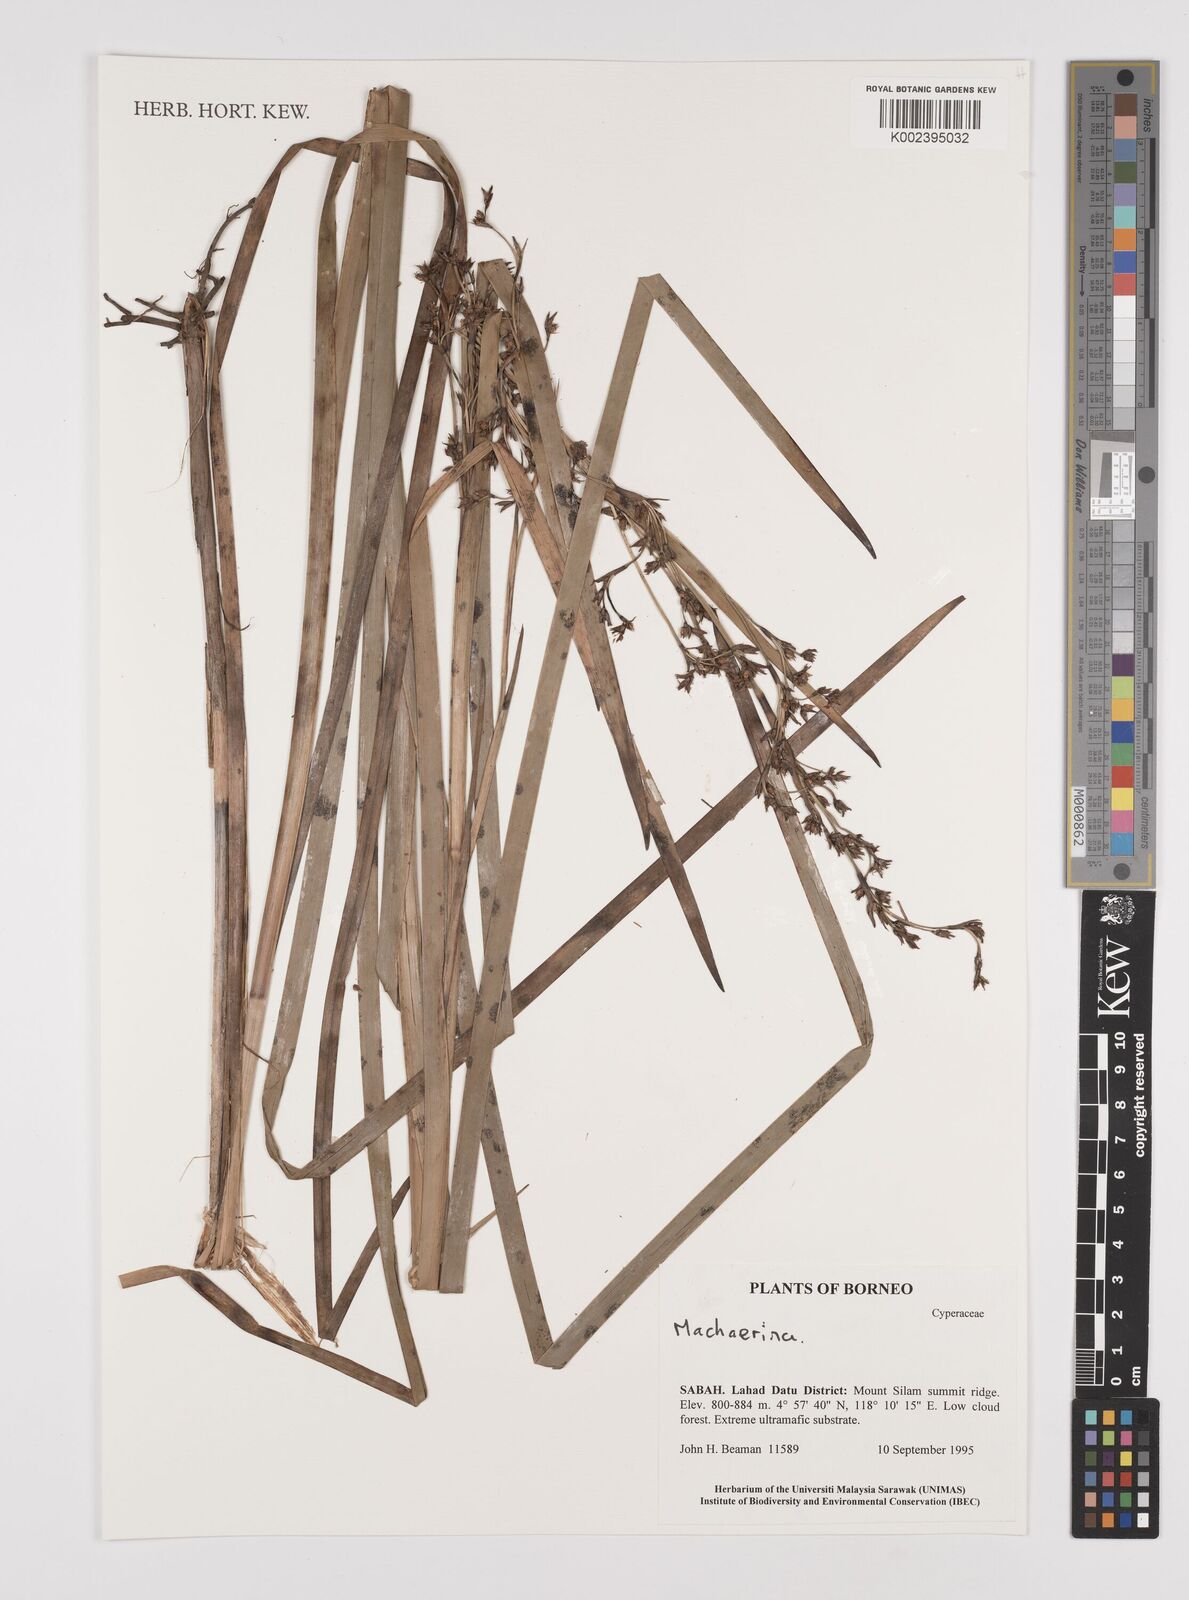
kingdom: Plantae
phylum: Tracheophyta
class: Liliopsida
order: Poales
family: Cyperaceae
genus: Machaerina
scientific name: Machaerina
